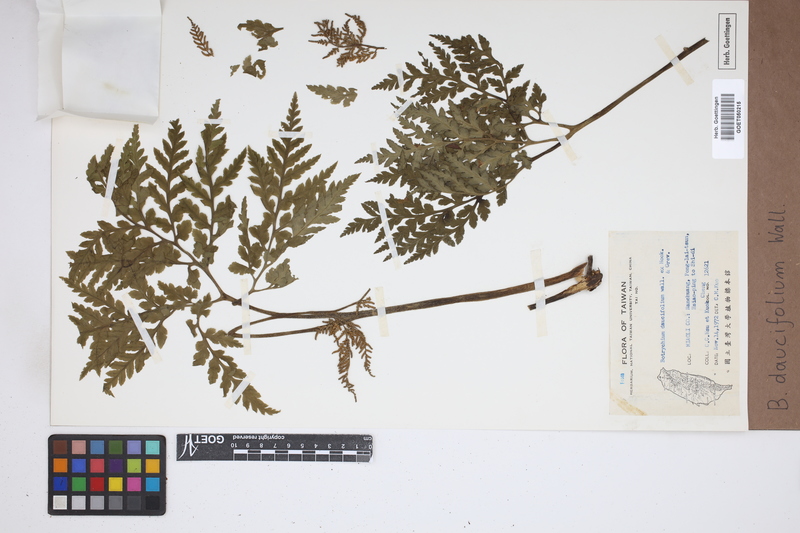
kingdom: Plantae
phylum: Tracheophyta
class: Polypodiopsida
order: Ophioglossales
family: Ophioglossaceae
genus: Sceptridium
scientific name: Sceptridium daucifolium
